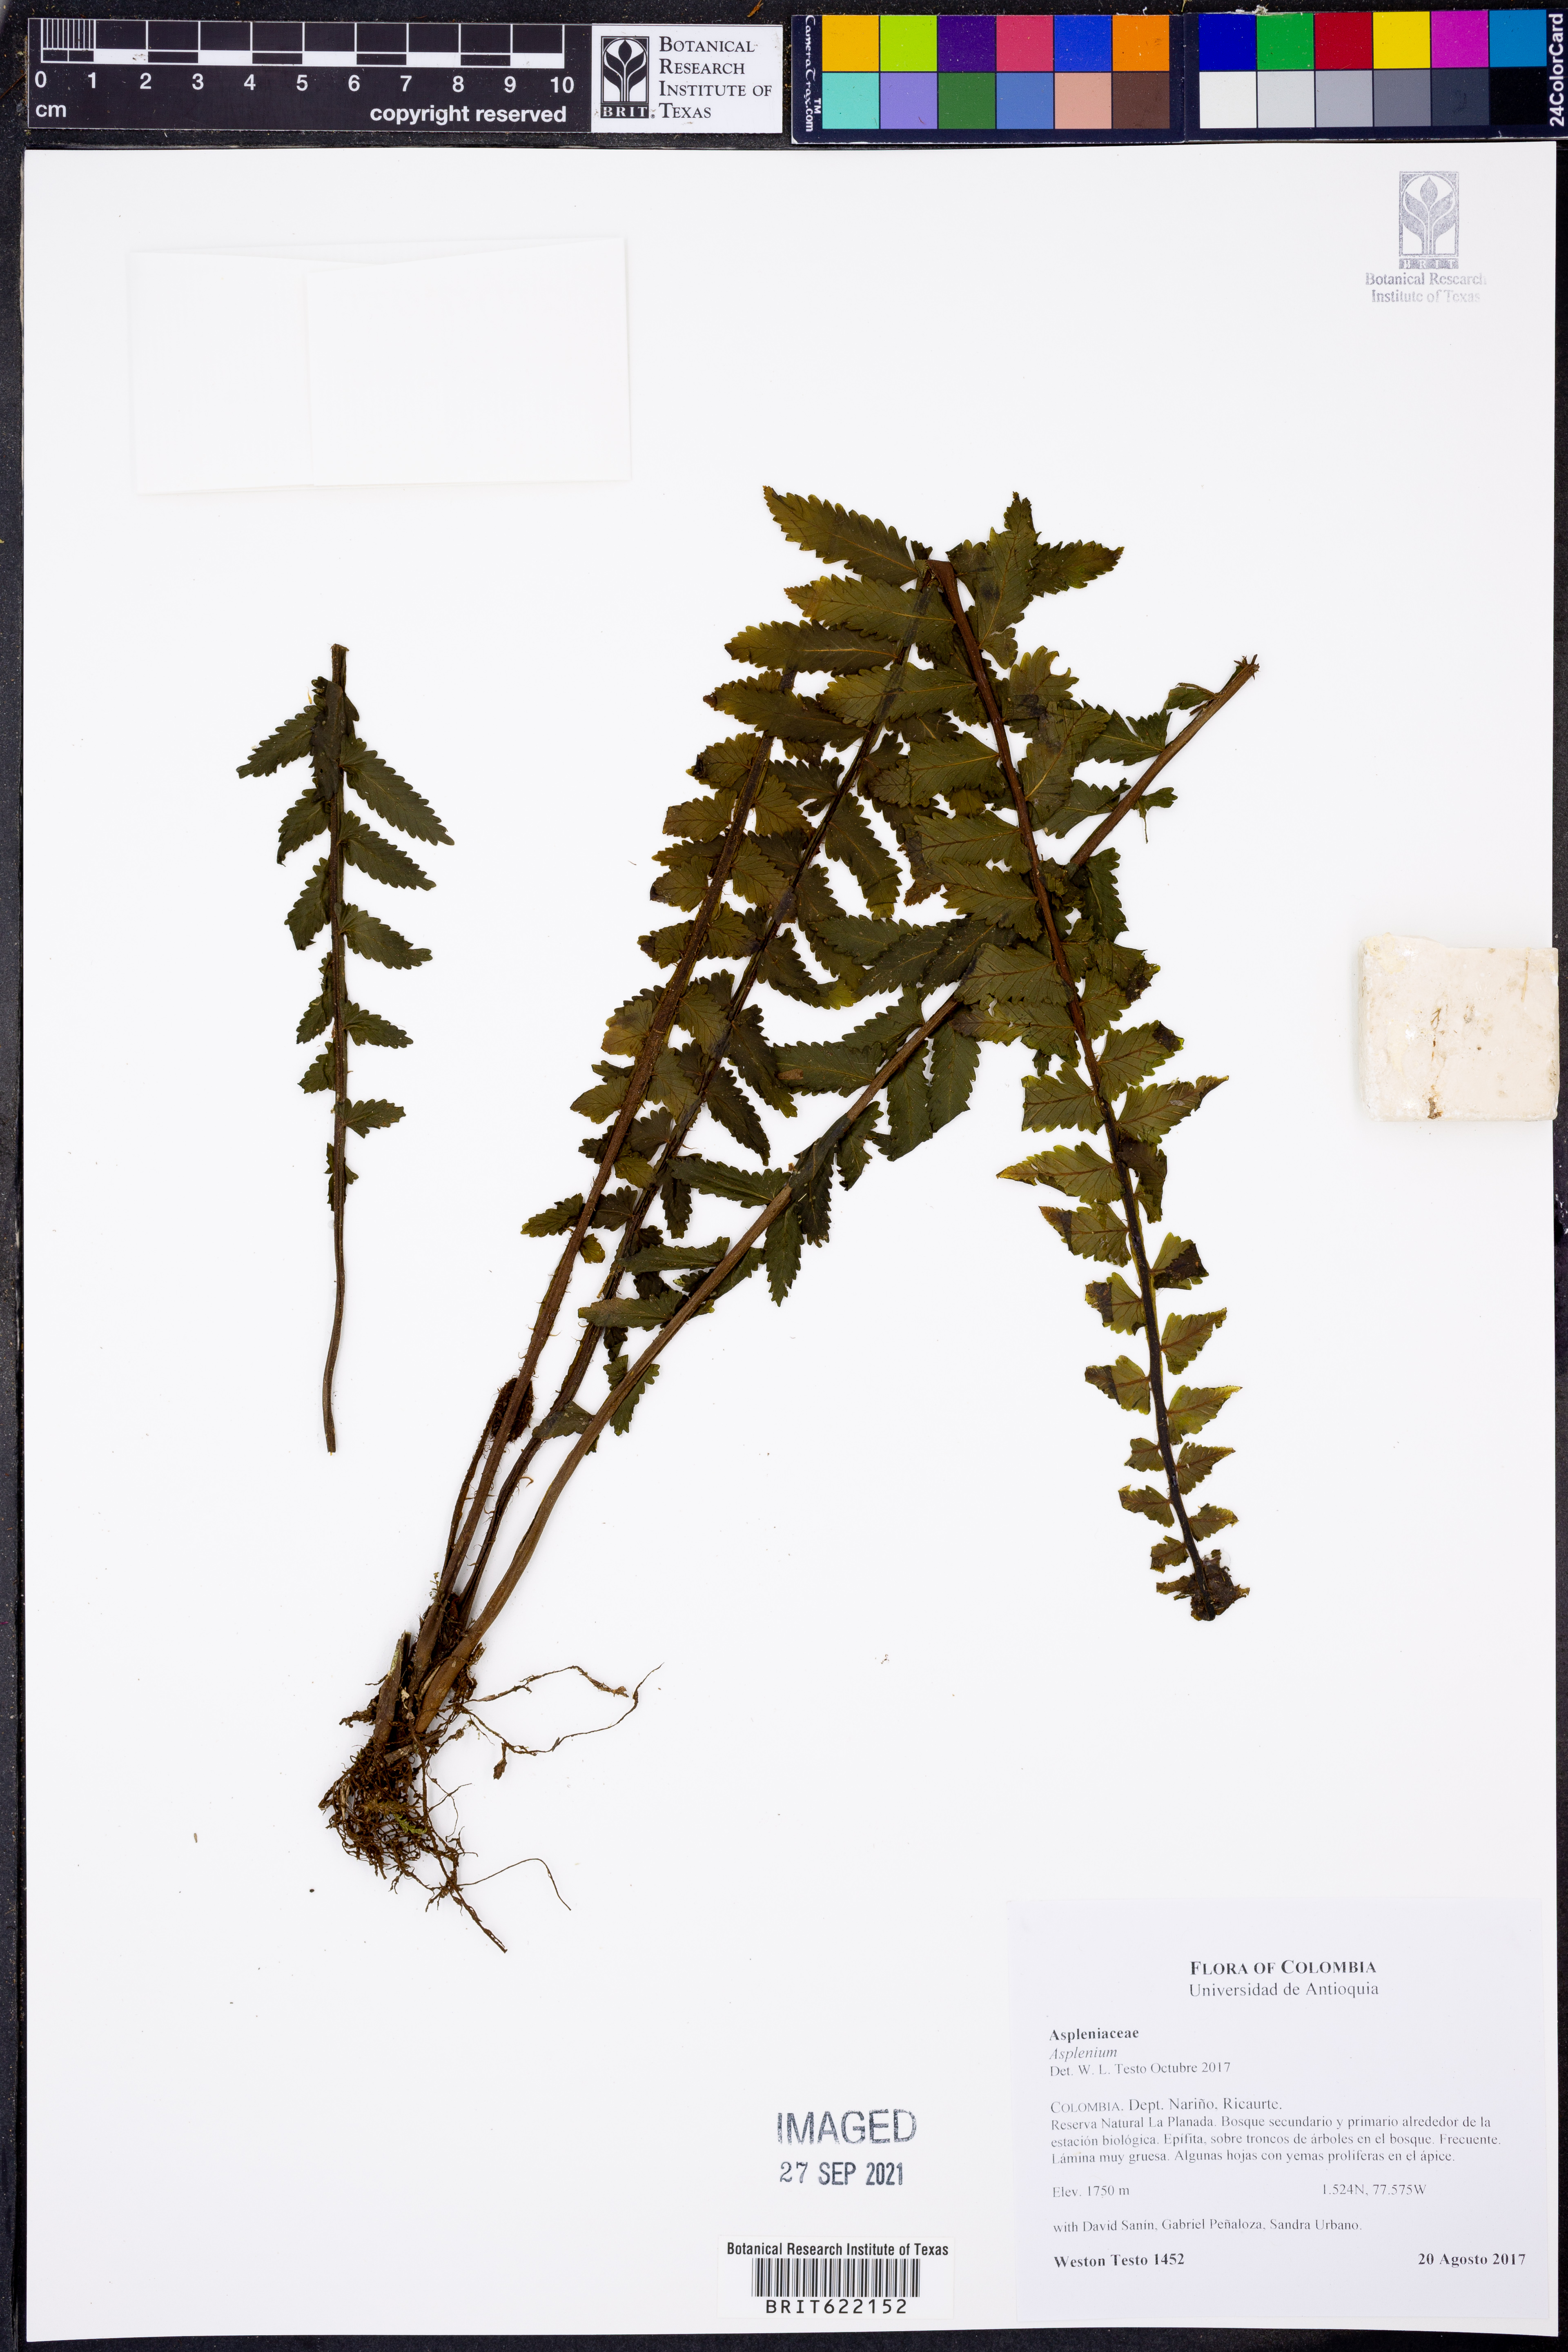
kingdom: Plantae
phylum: Tracheophyta
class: Polypodiopsida
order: Polypodiales
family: Aspleniaceae
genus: Asplenium
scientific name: Asplenium
